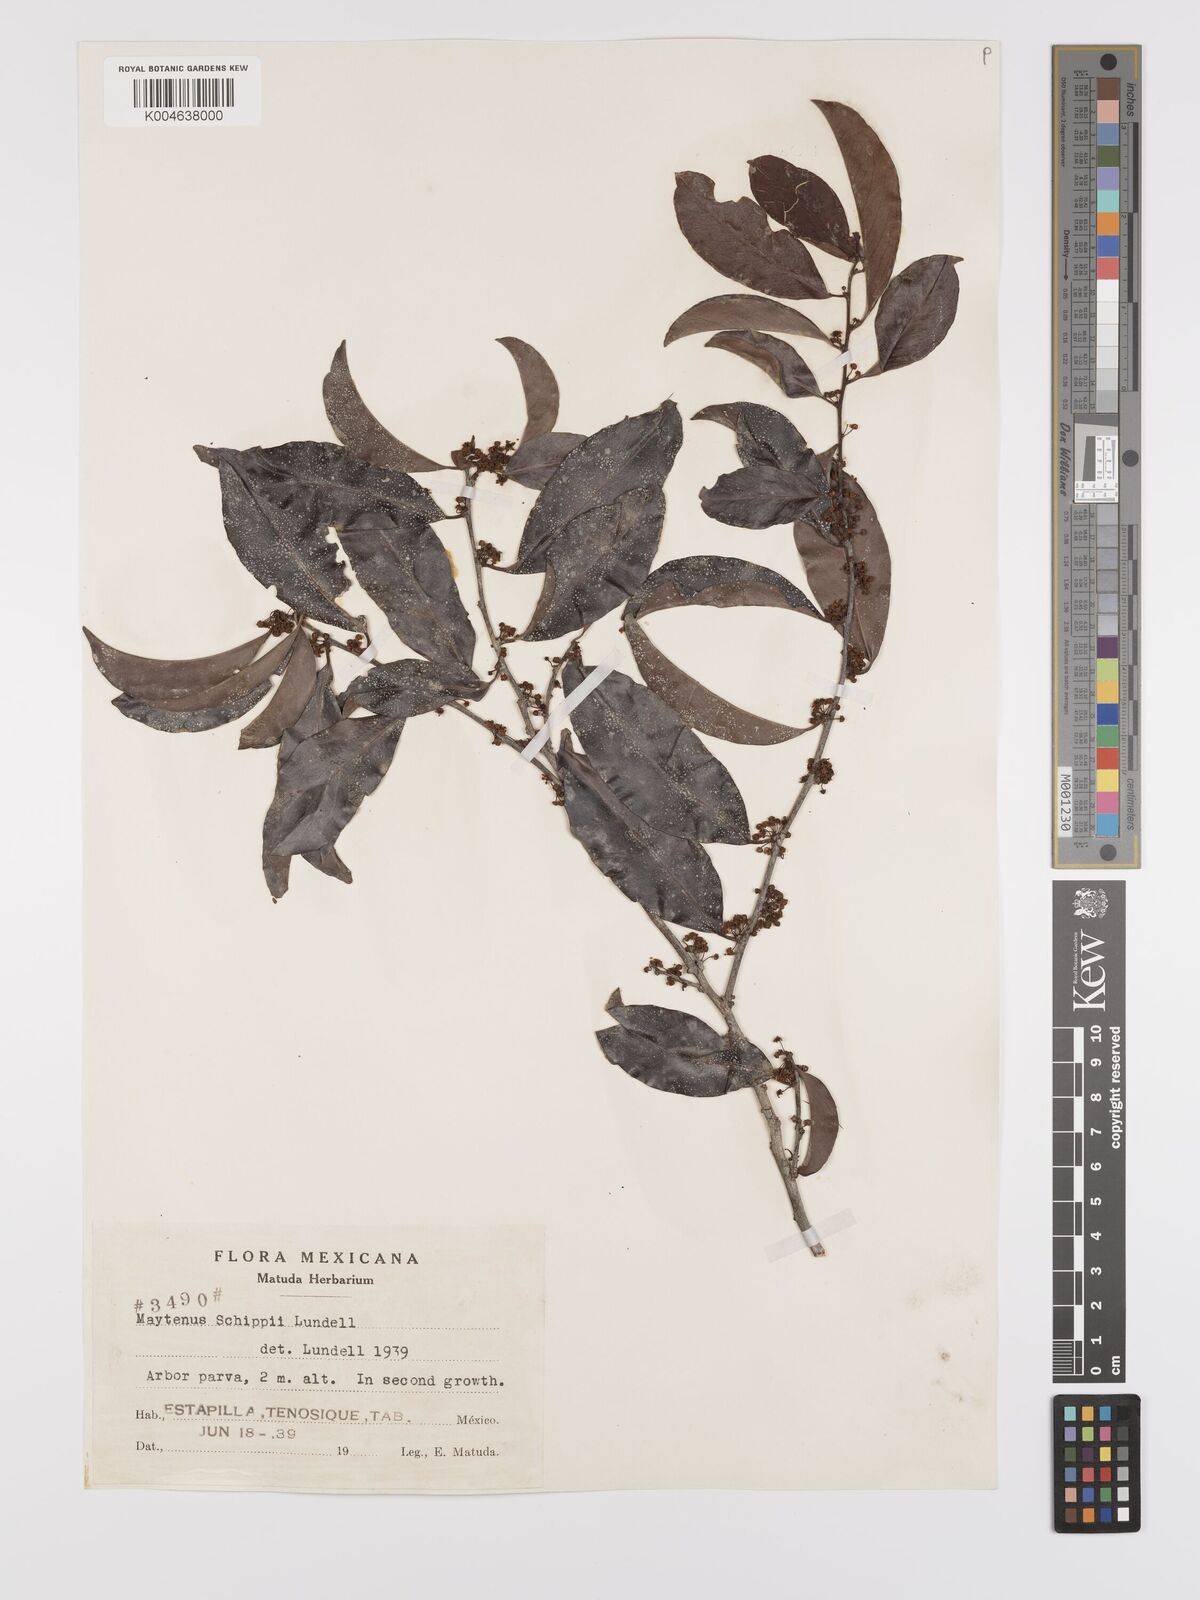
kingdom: Plantae
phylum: Tracheophyta
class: Magnoliopsida
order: Celastrales
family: Celastraceae
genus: Monteverdia
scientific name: Monteverdia schippii
